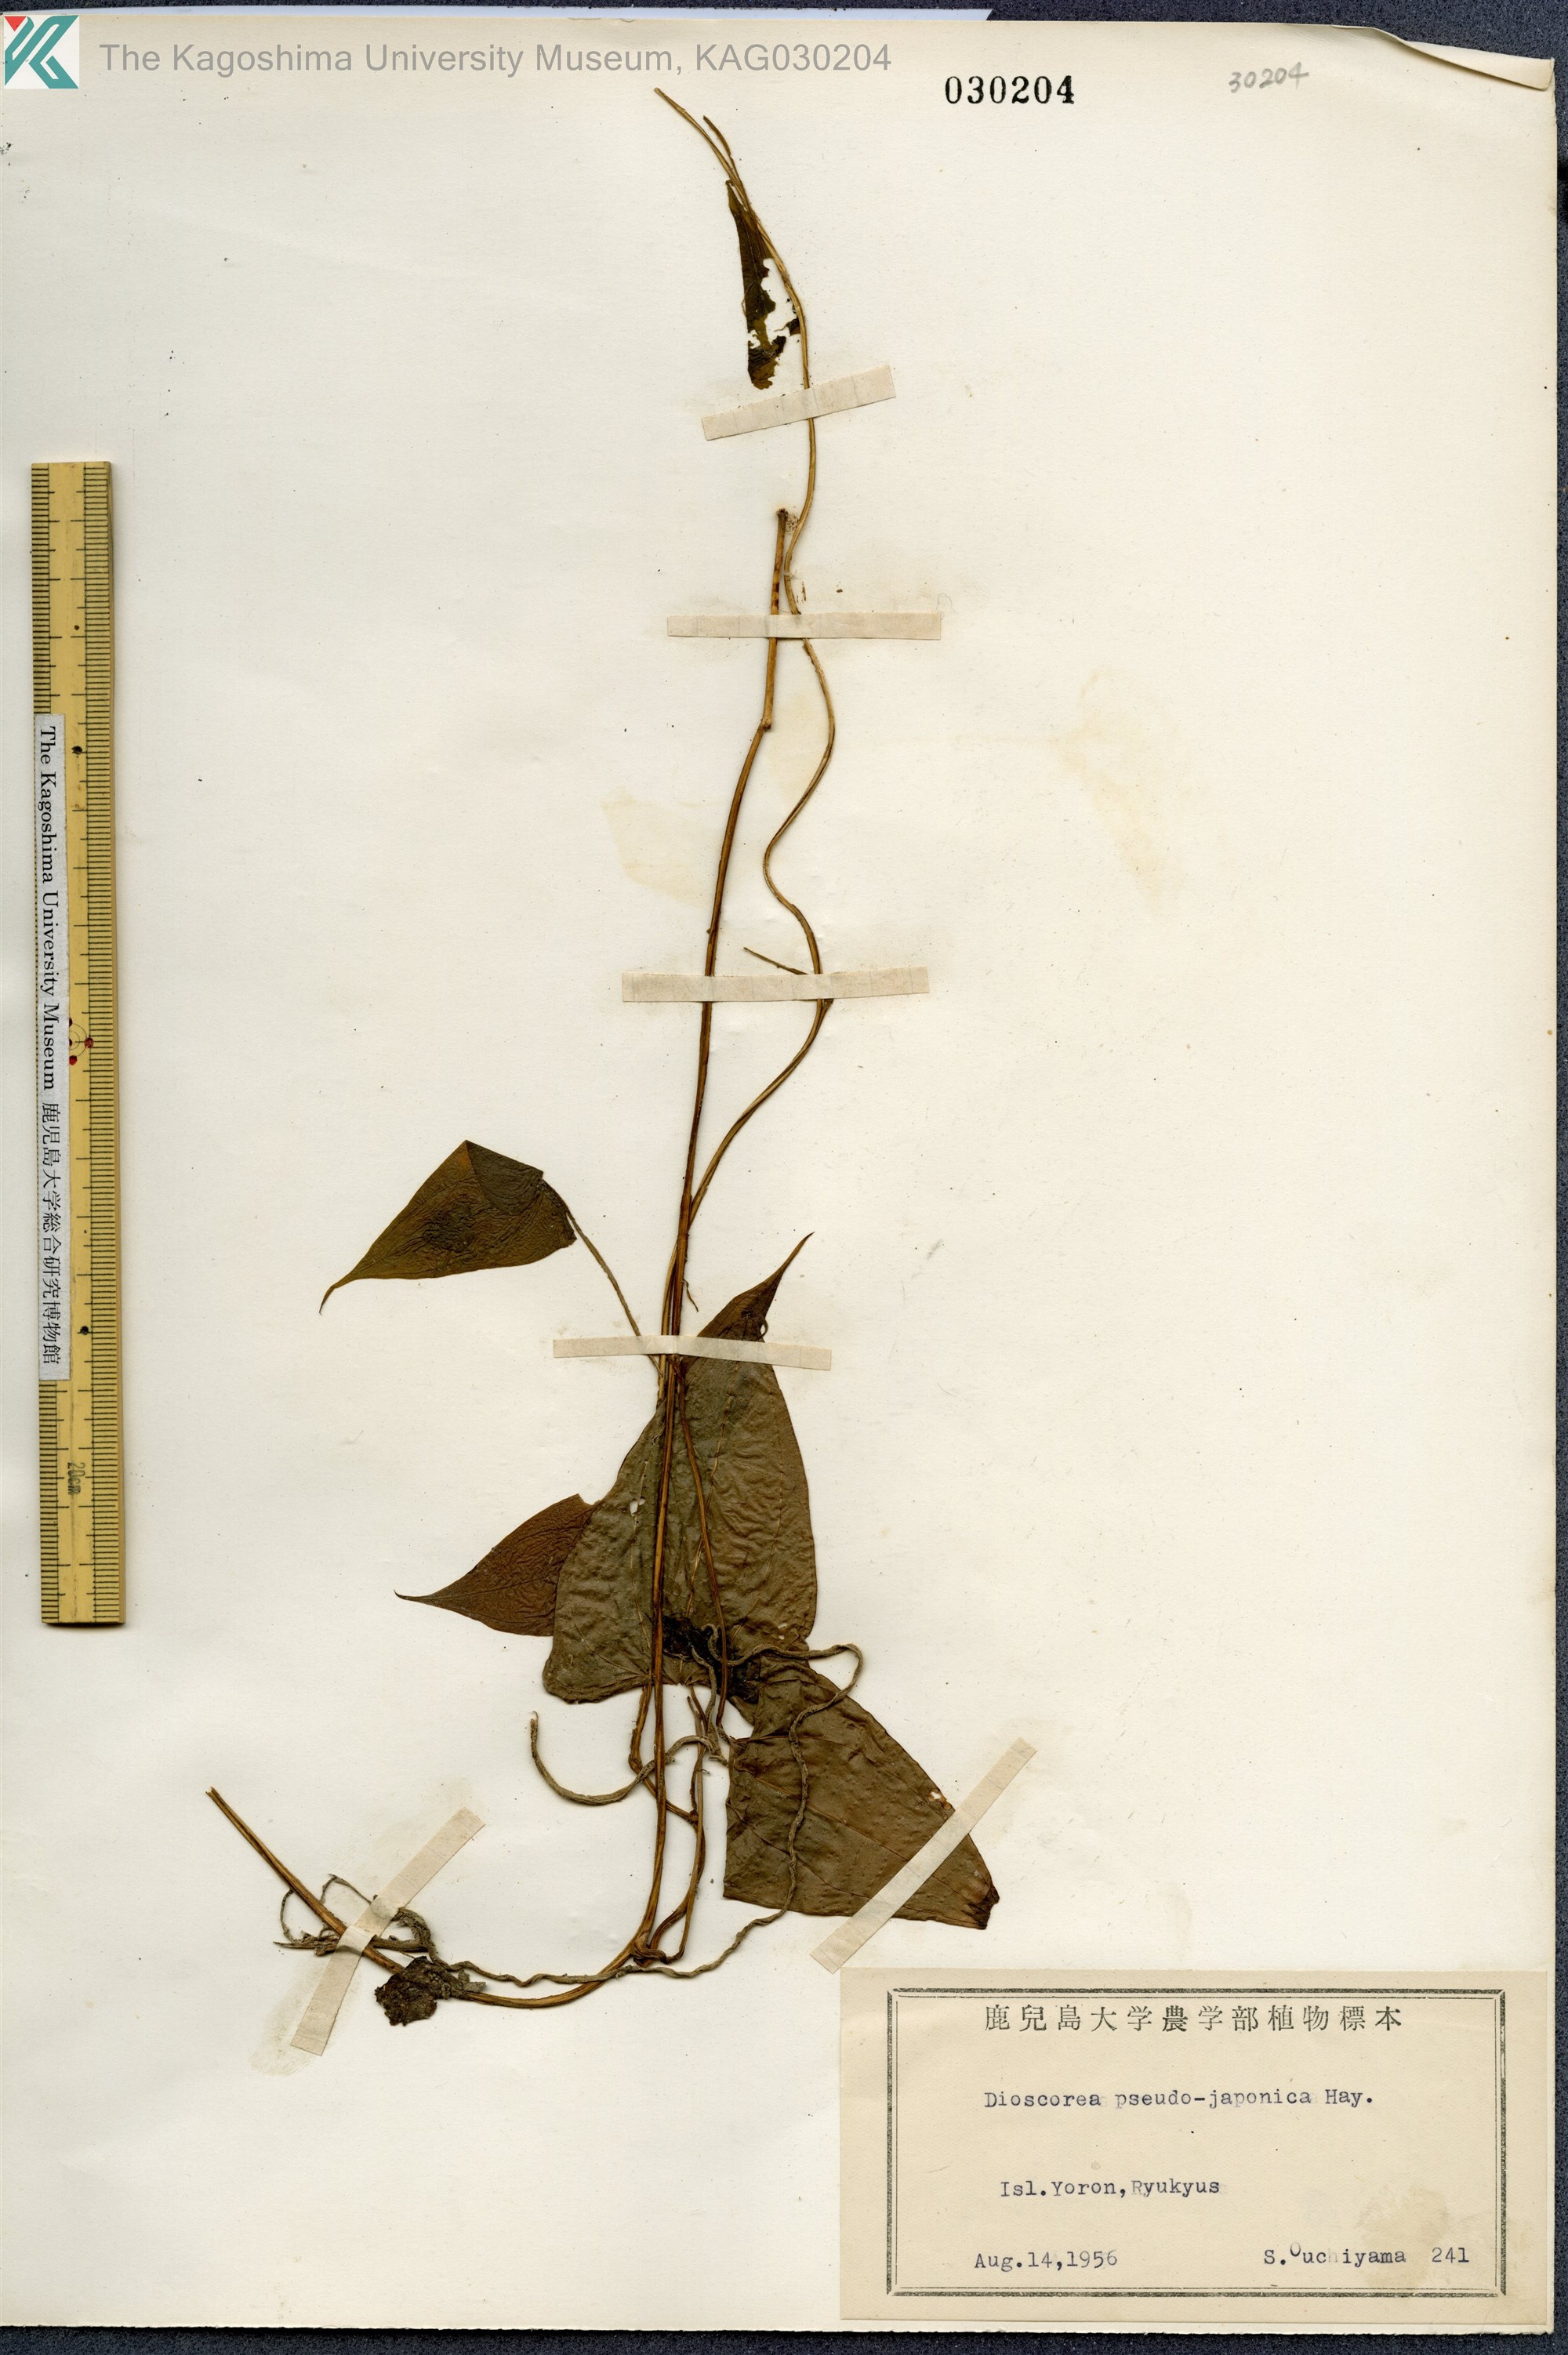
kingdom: Plantae
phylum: Tracheophyta
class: Liliopsida
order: Dioscoreales
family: Dioscoreaceae
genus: Dioscorea
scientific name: Dioscorea pseudojaponica
